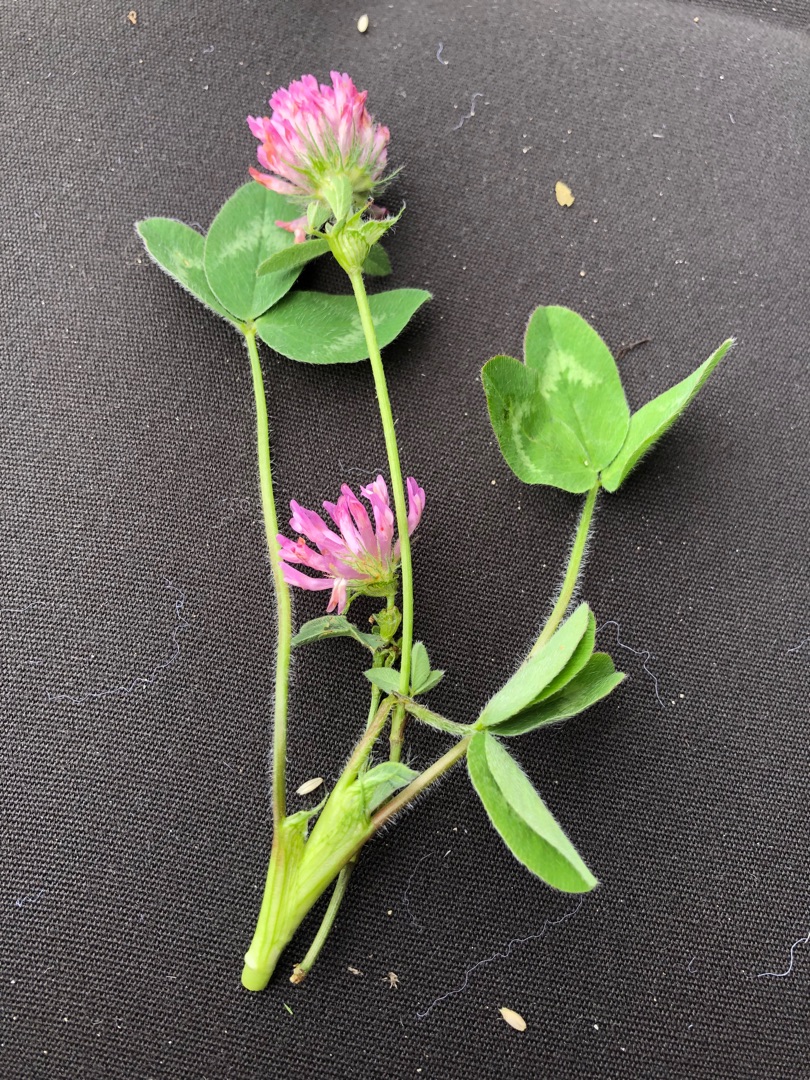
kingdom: Plantae
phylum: Tracheophyta
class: Magnoliopsida
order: Fabales
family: Fabaceae
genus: Trifolium
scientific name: Trifolium pratense
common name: Rød-kløver
